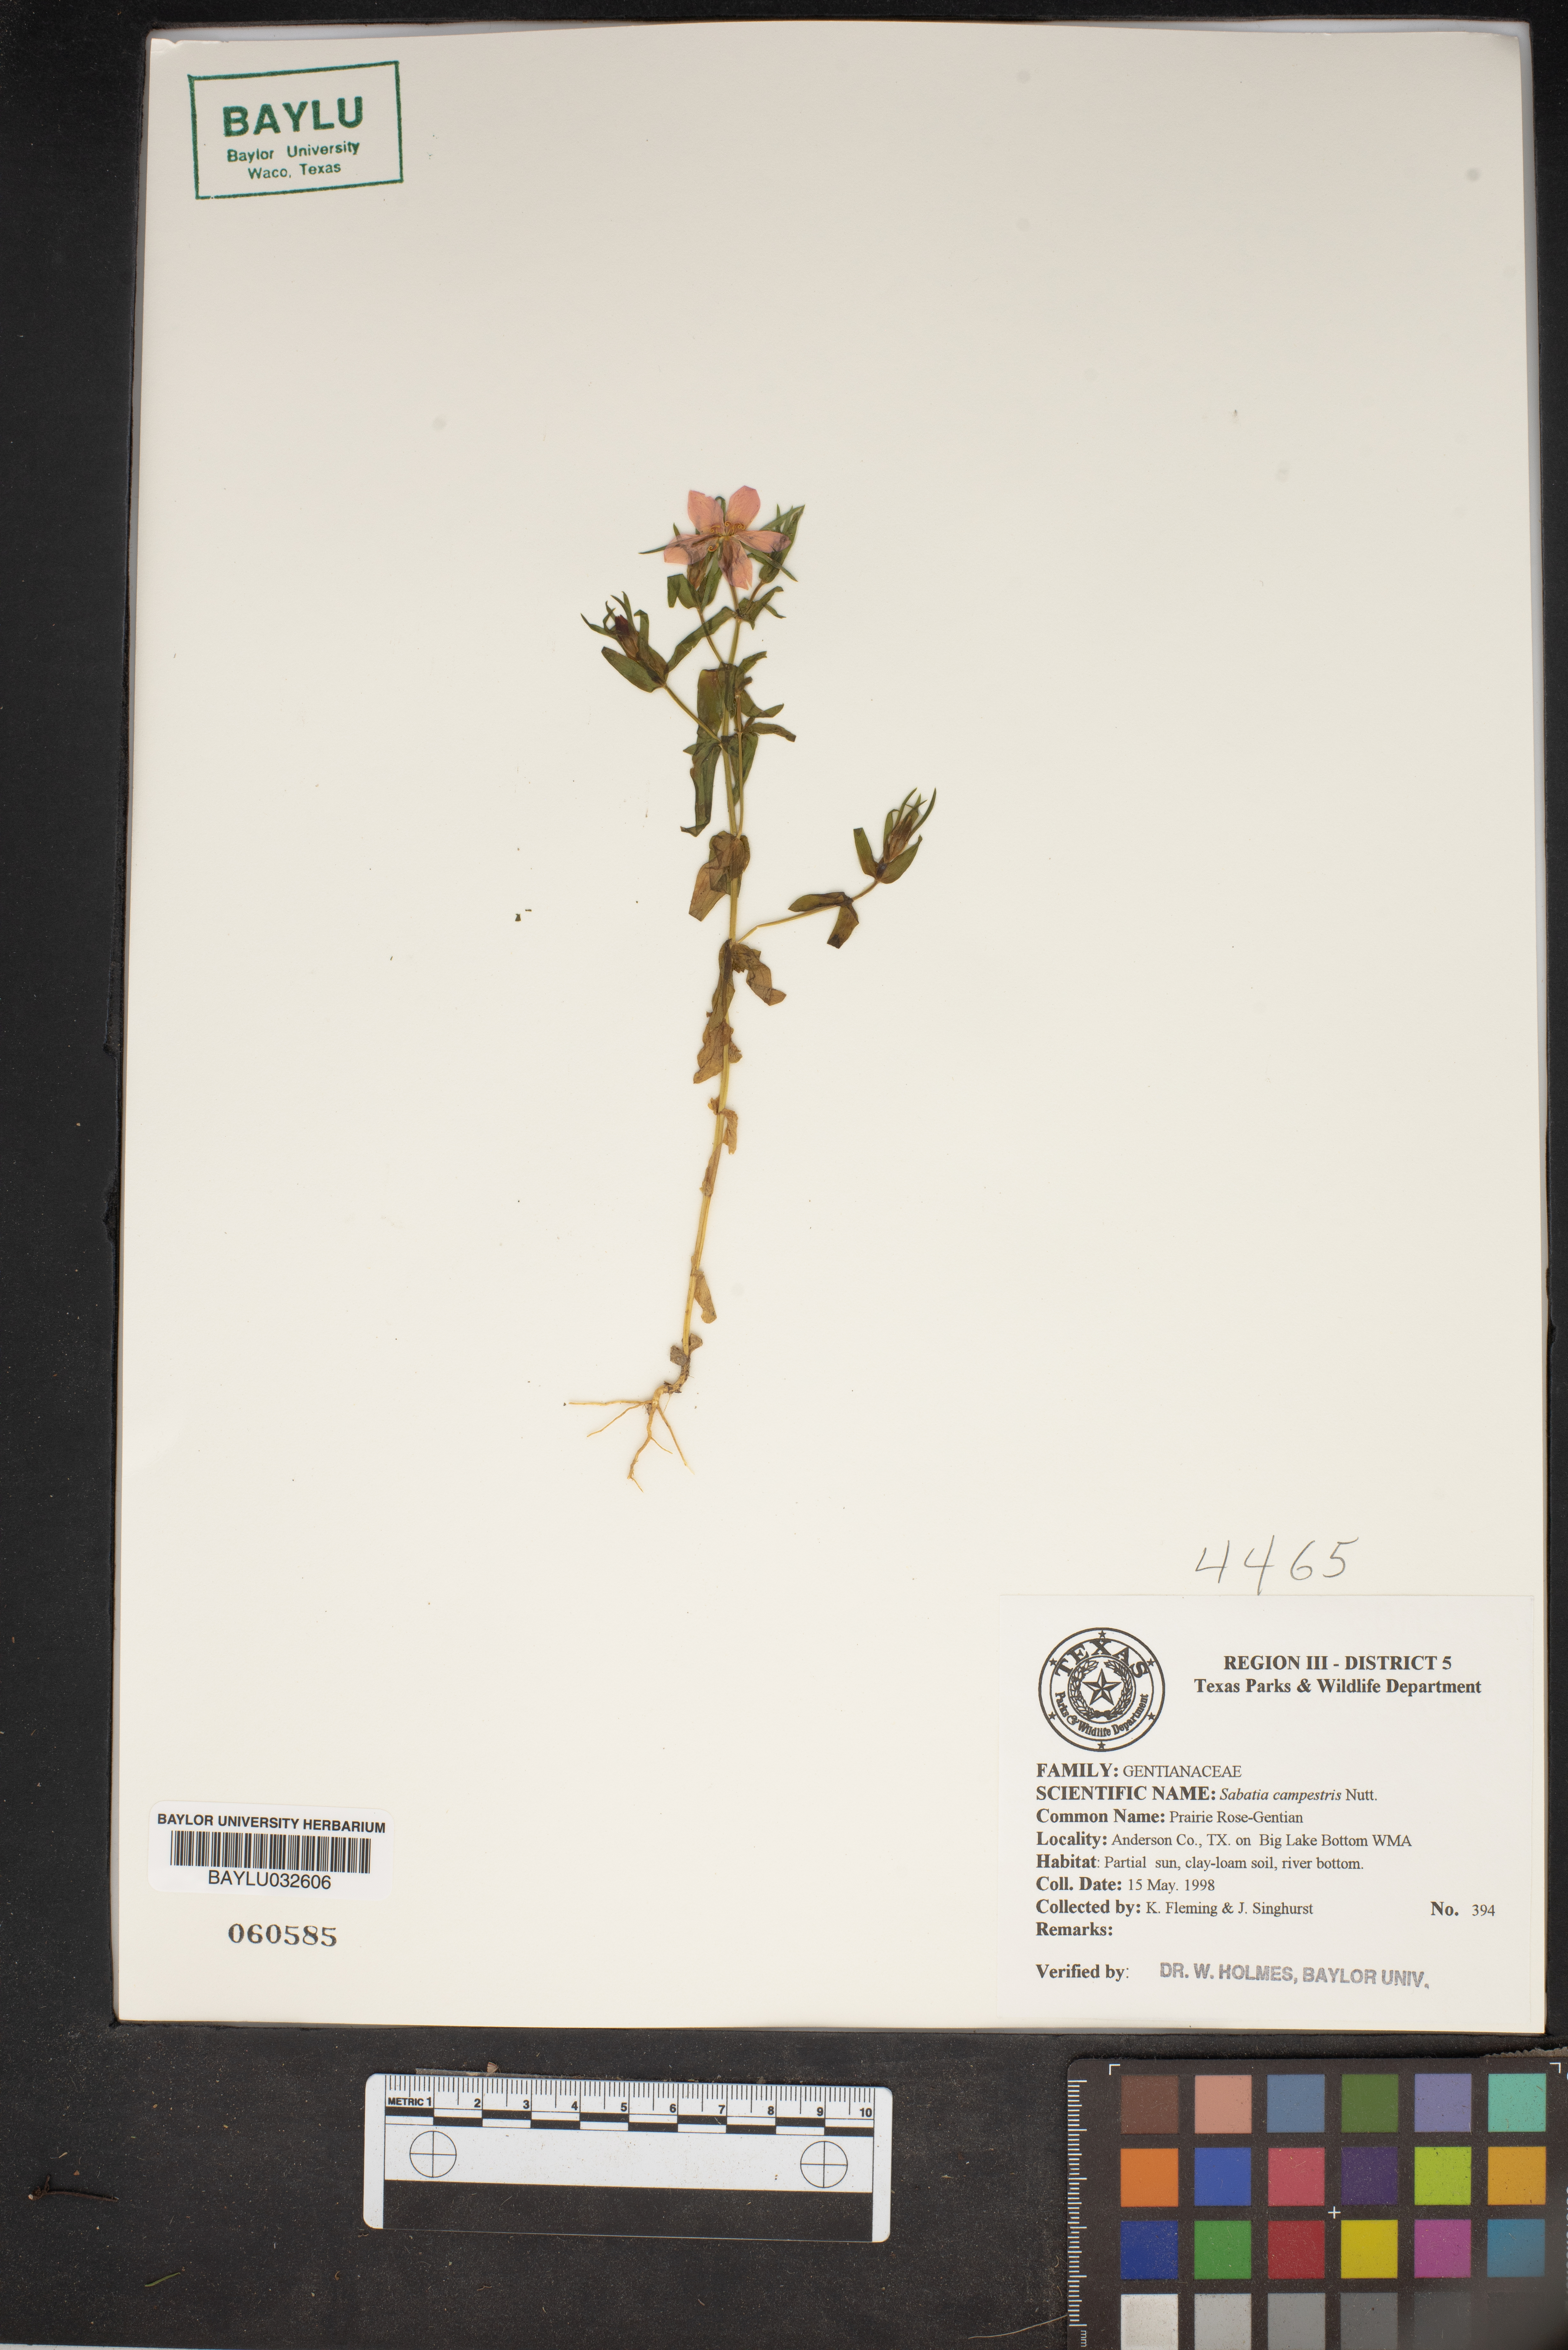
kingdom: Plantae
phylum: Tracheophyta
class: Magnoliopsida
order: Gentianales
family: Gentianaceae
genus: Sabatia
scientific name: Sabatia campestris
